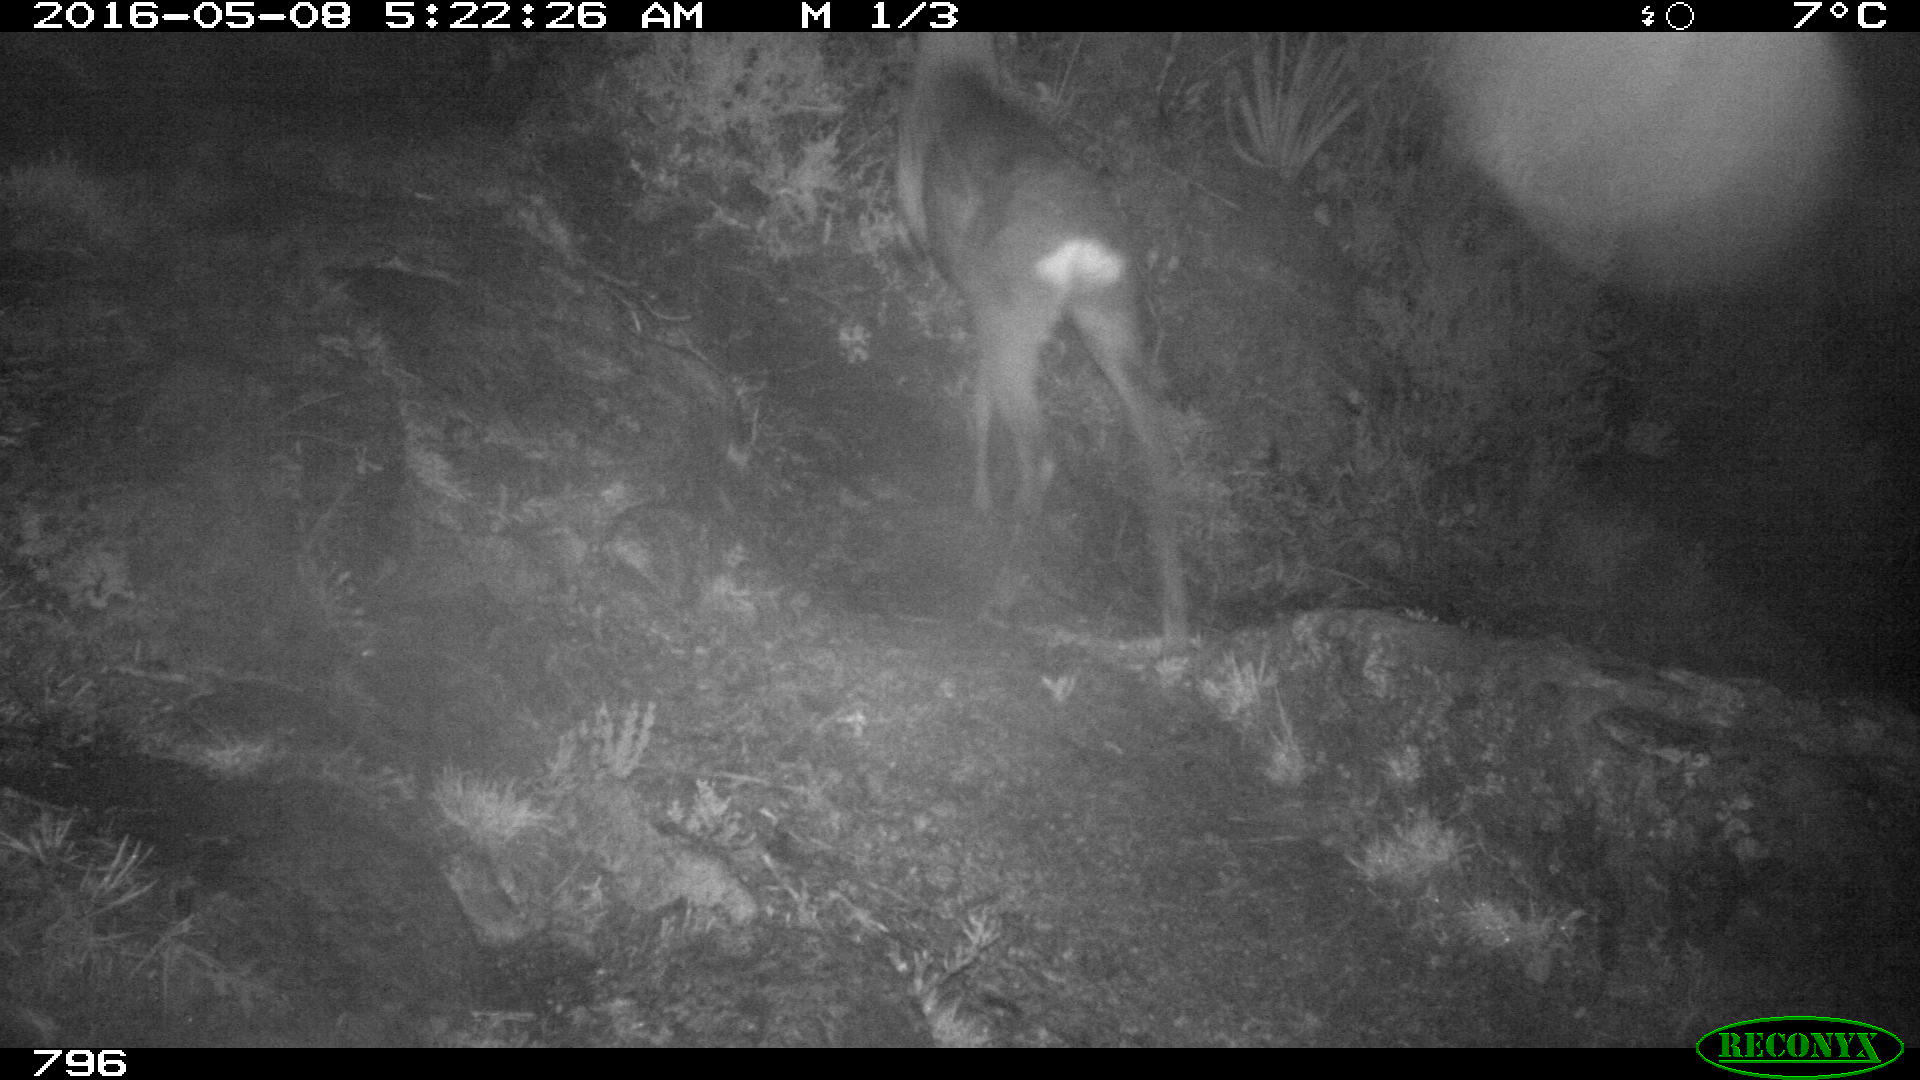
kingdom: Animalia
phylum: Chordata
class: Mammalia
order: Artiodactyla
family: Cervidae
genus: Capreolus
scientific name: Capreolus capreolus
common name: Western roe deer
